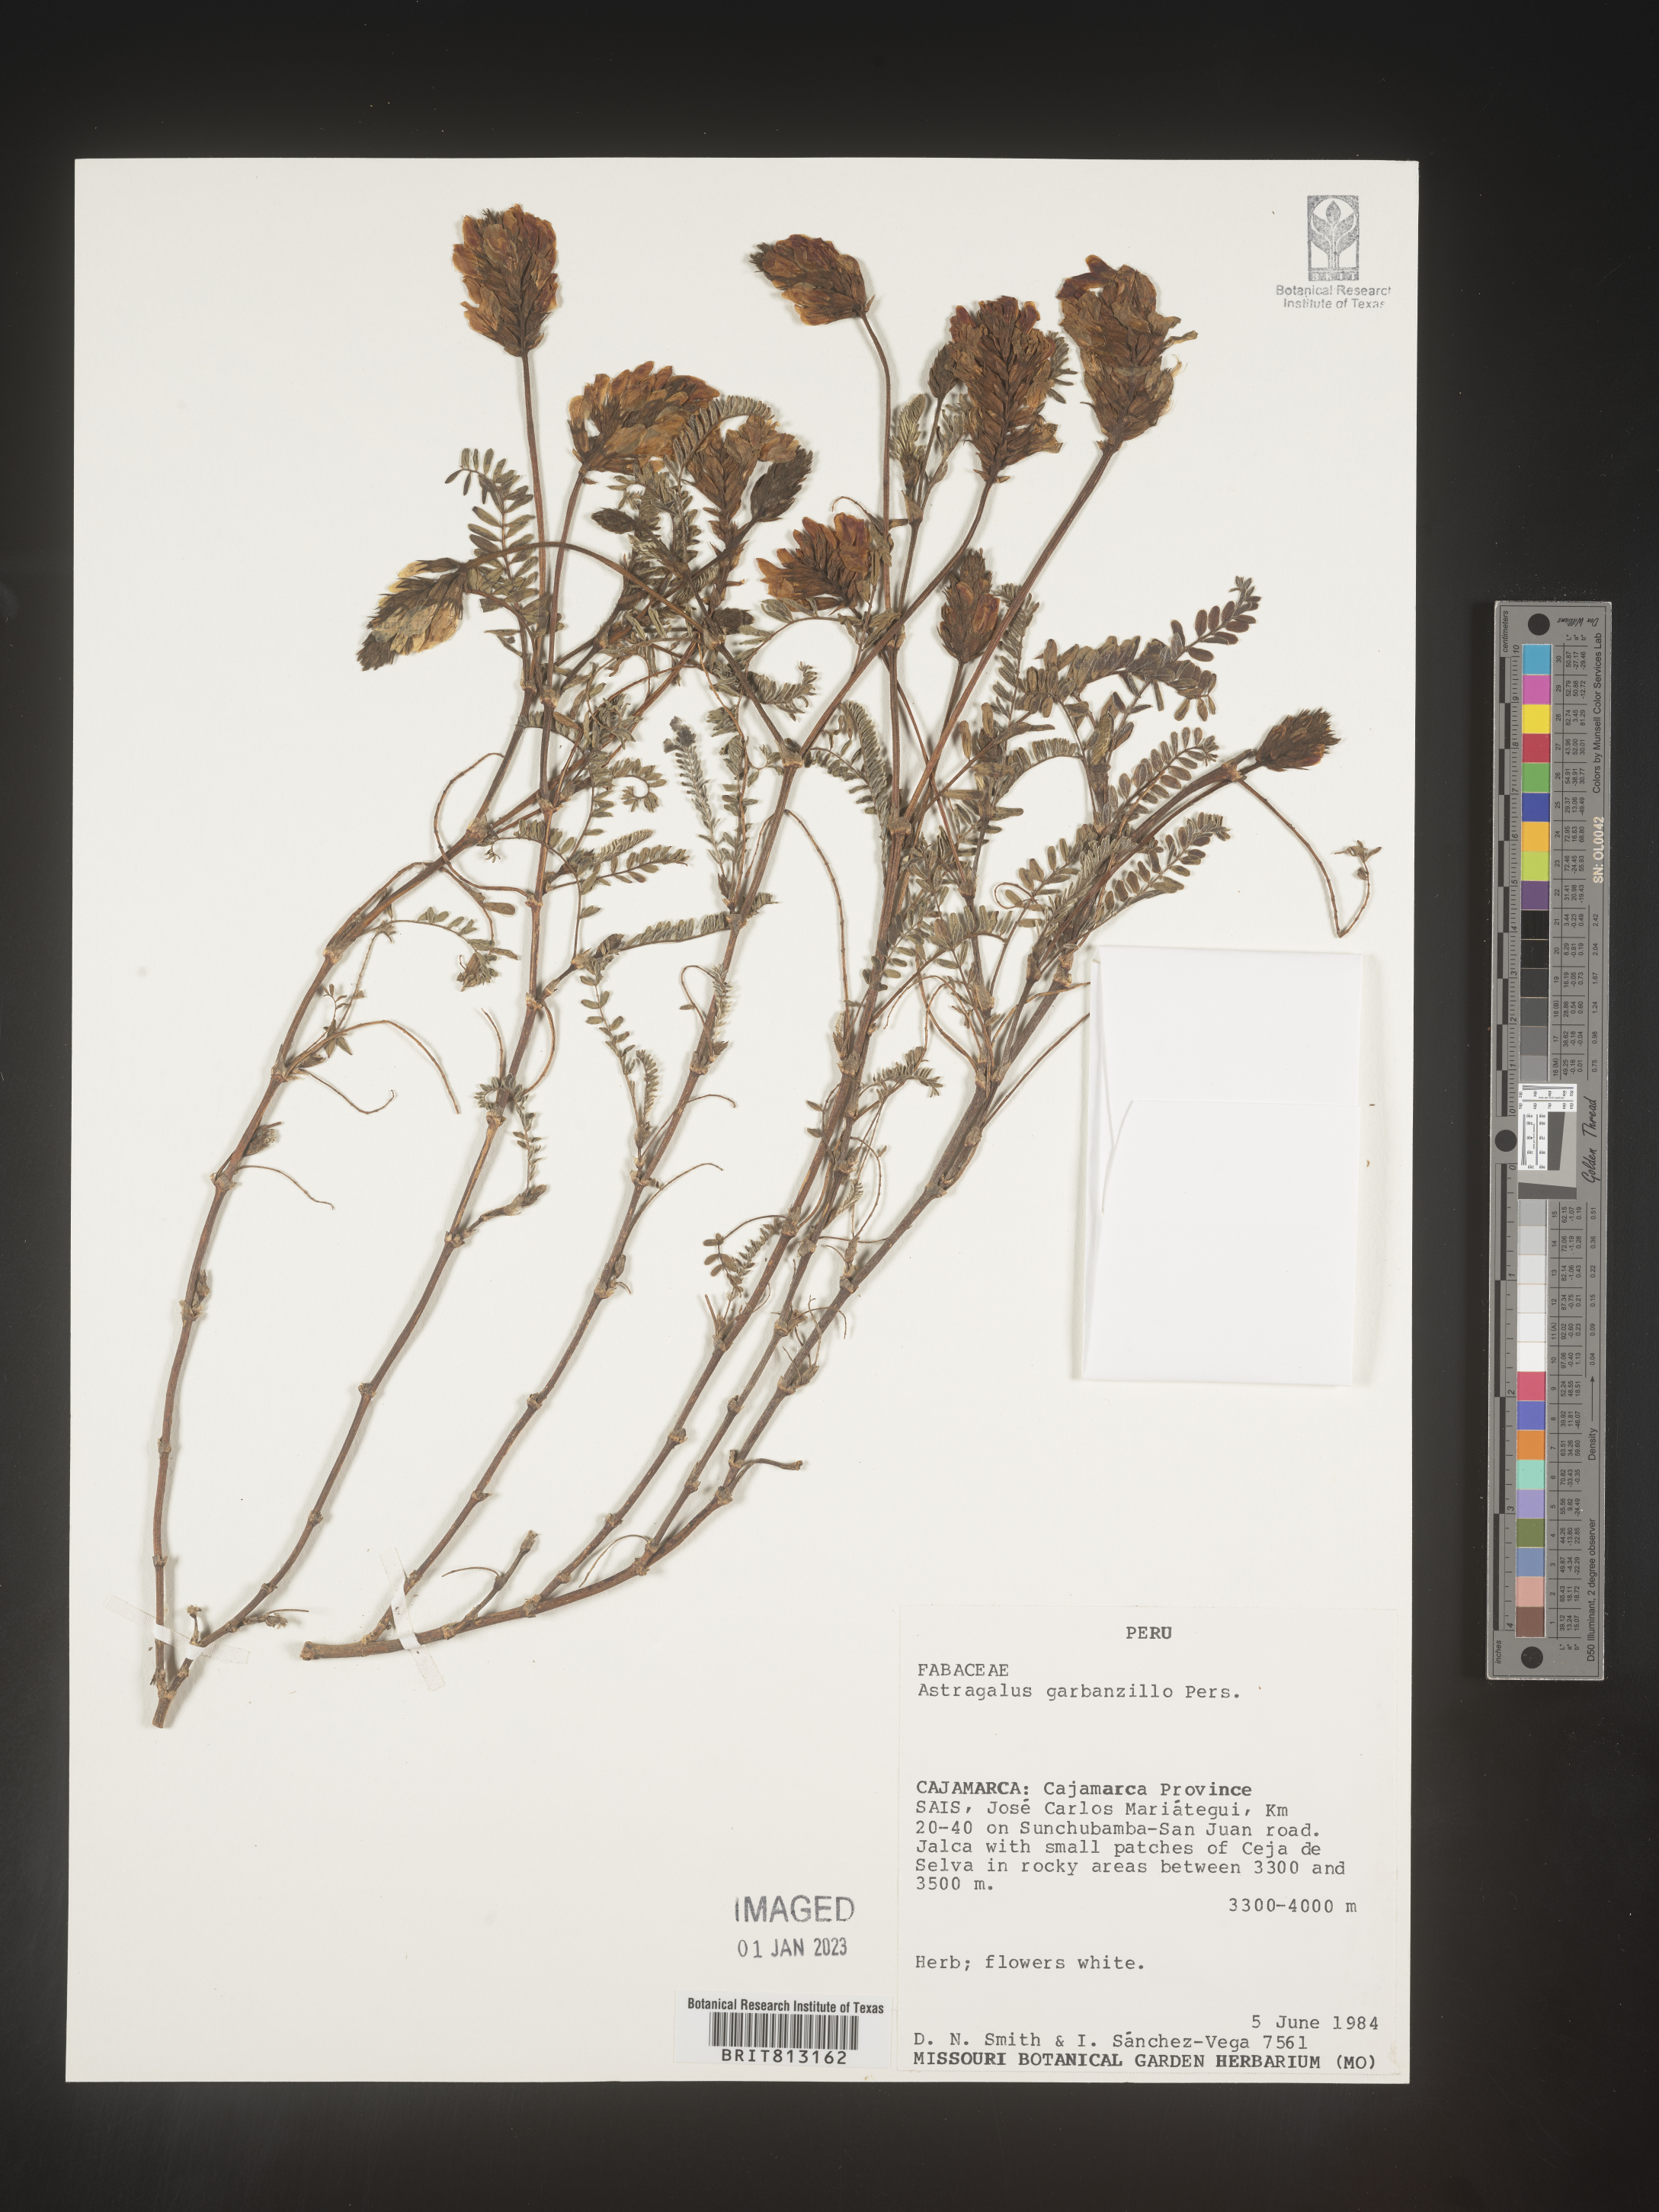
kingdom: Plantae
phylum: Tracheophyta
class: Magnoliopsida
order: Fabales
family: Fabaceae
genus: Astragalus
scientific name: Astragalus
